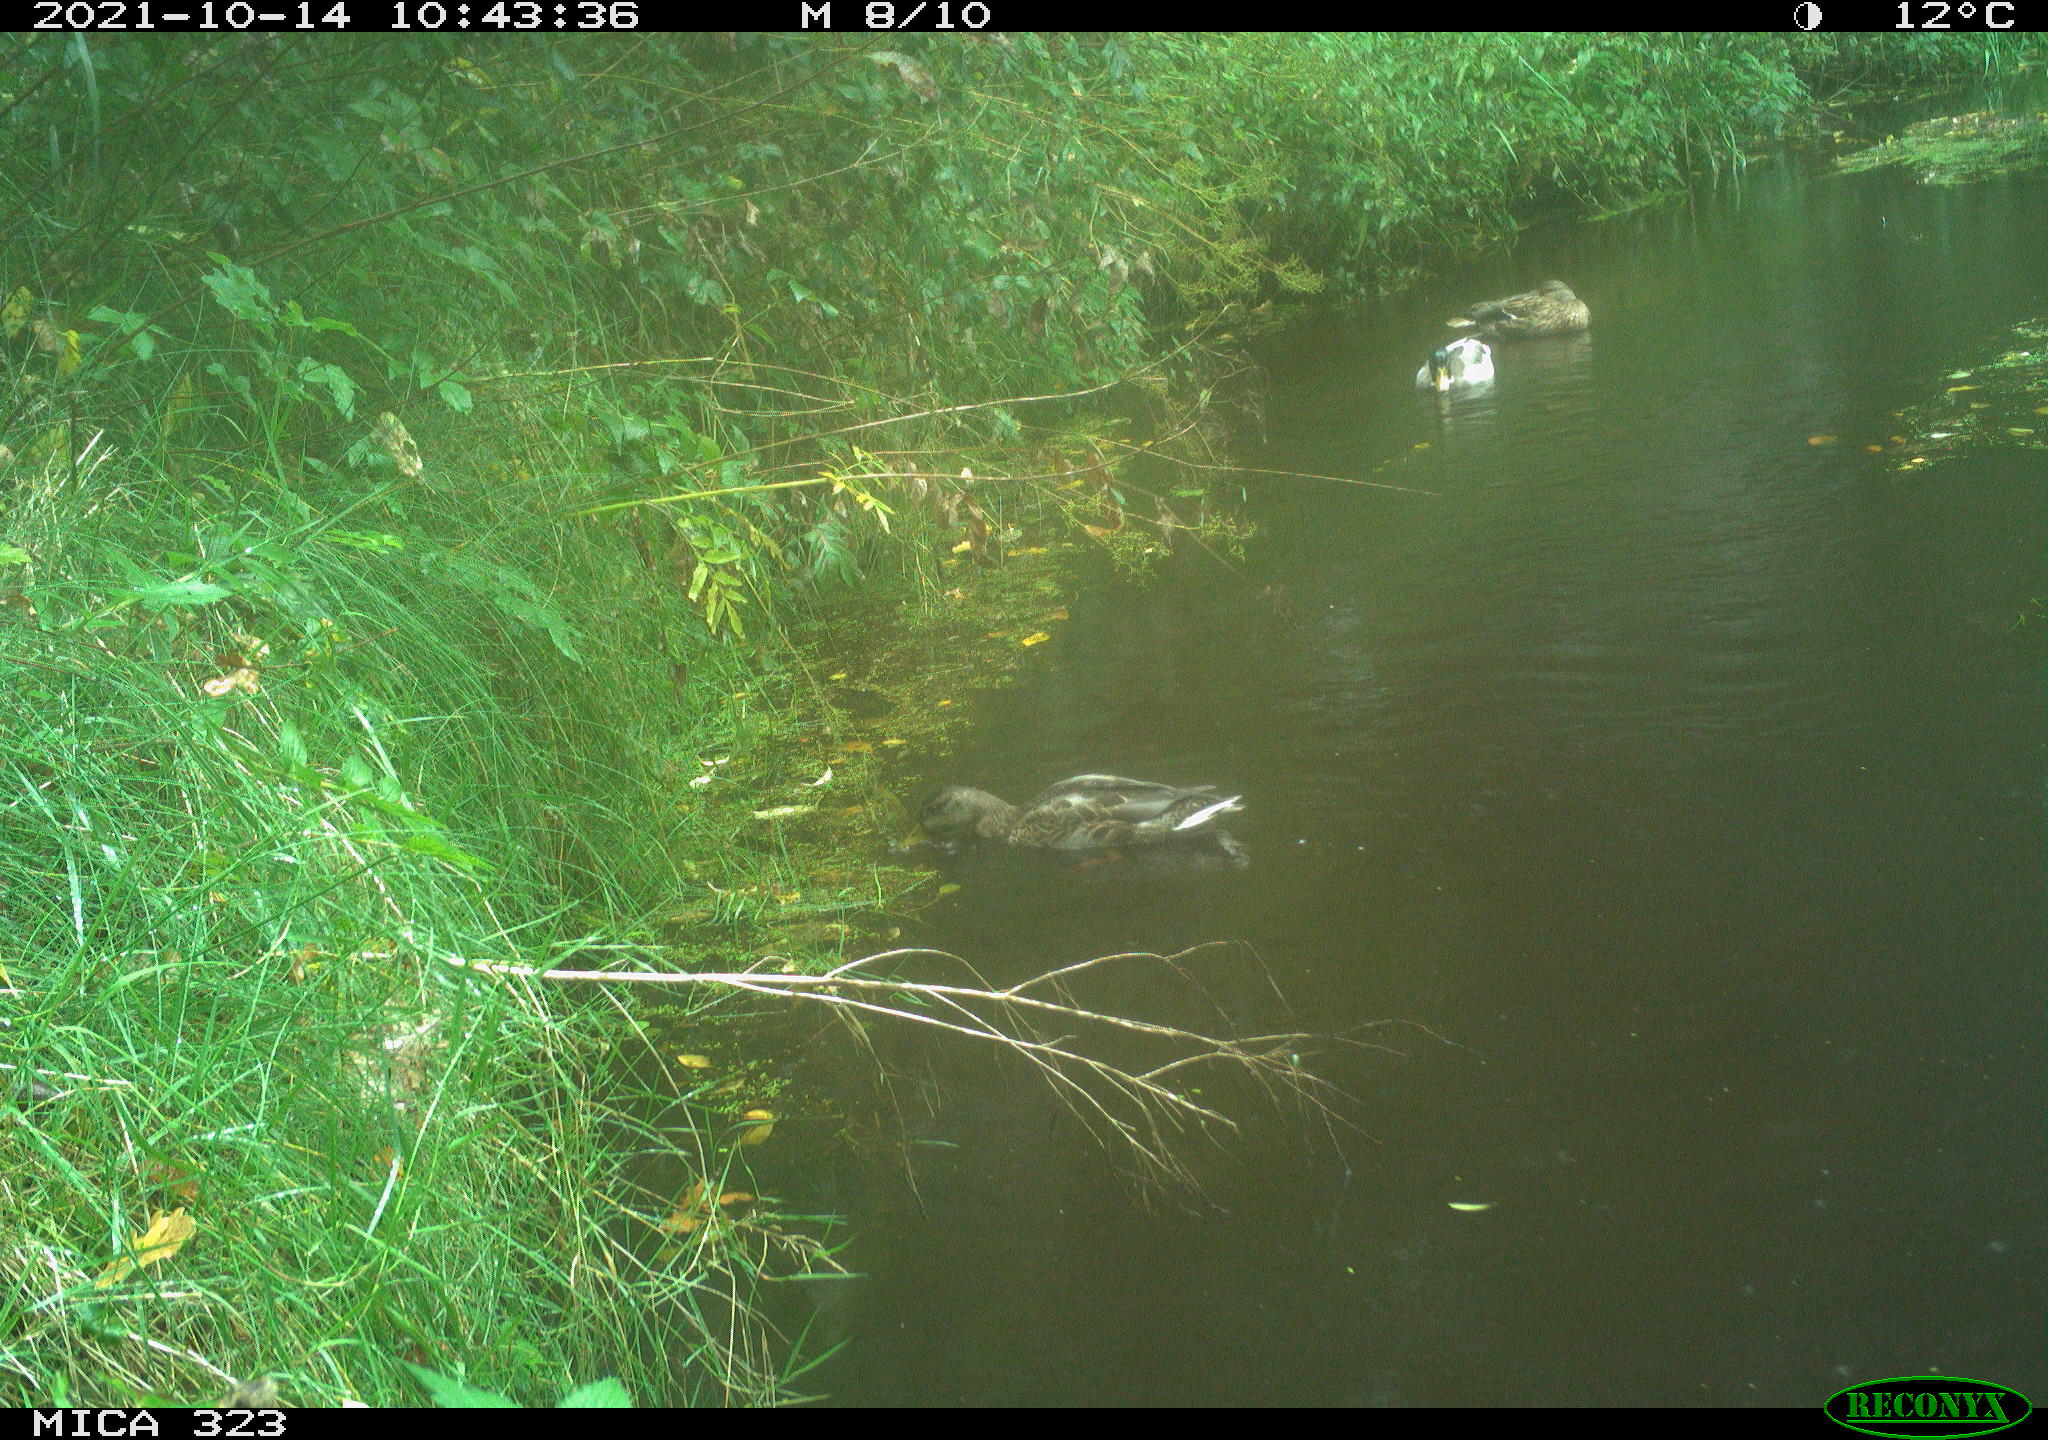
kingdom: Animalia
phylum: Chordata
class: Aves
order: Anseriformes
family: Anatidae
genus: Anas
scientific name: Anas platyrhynchos
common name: Mallard
